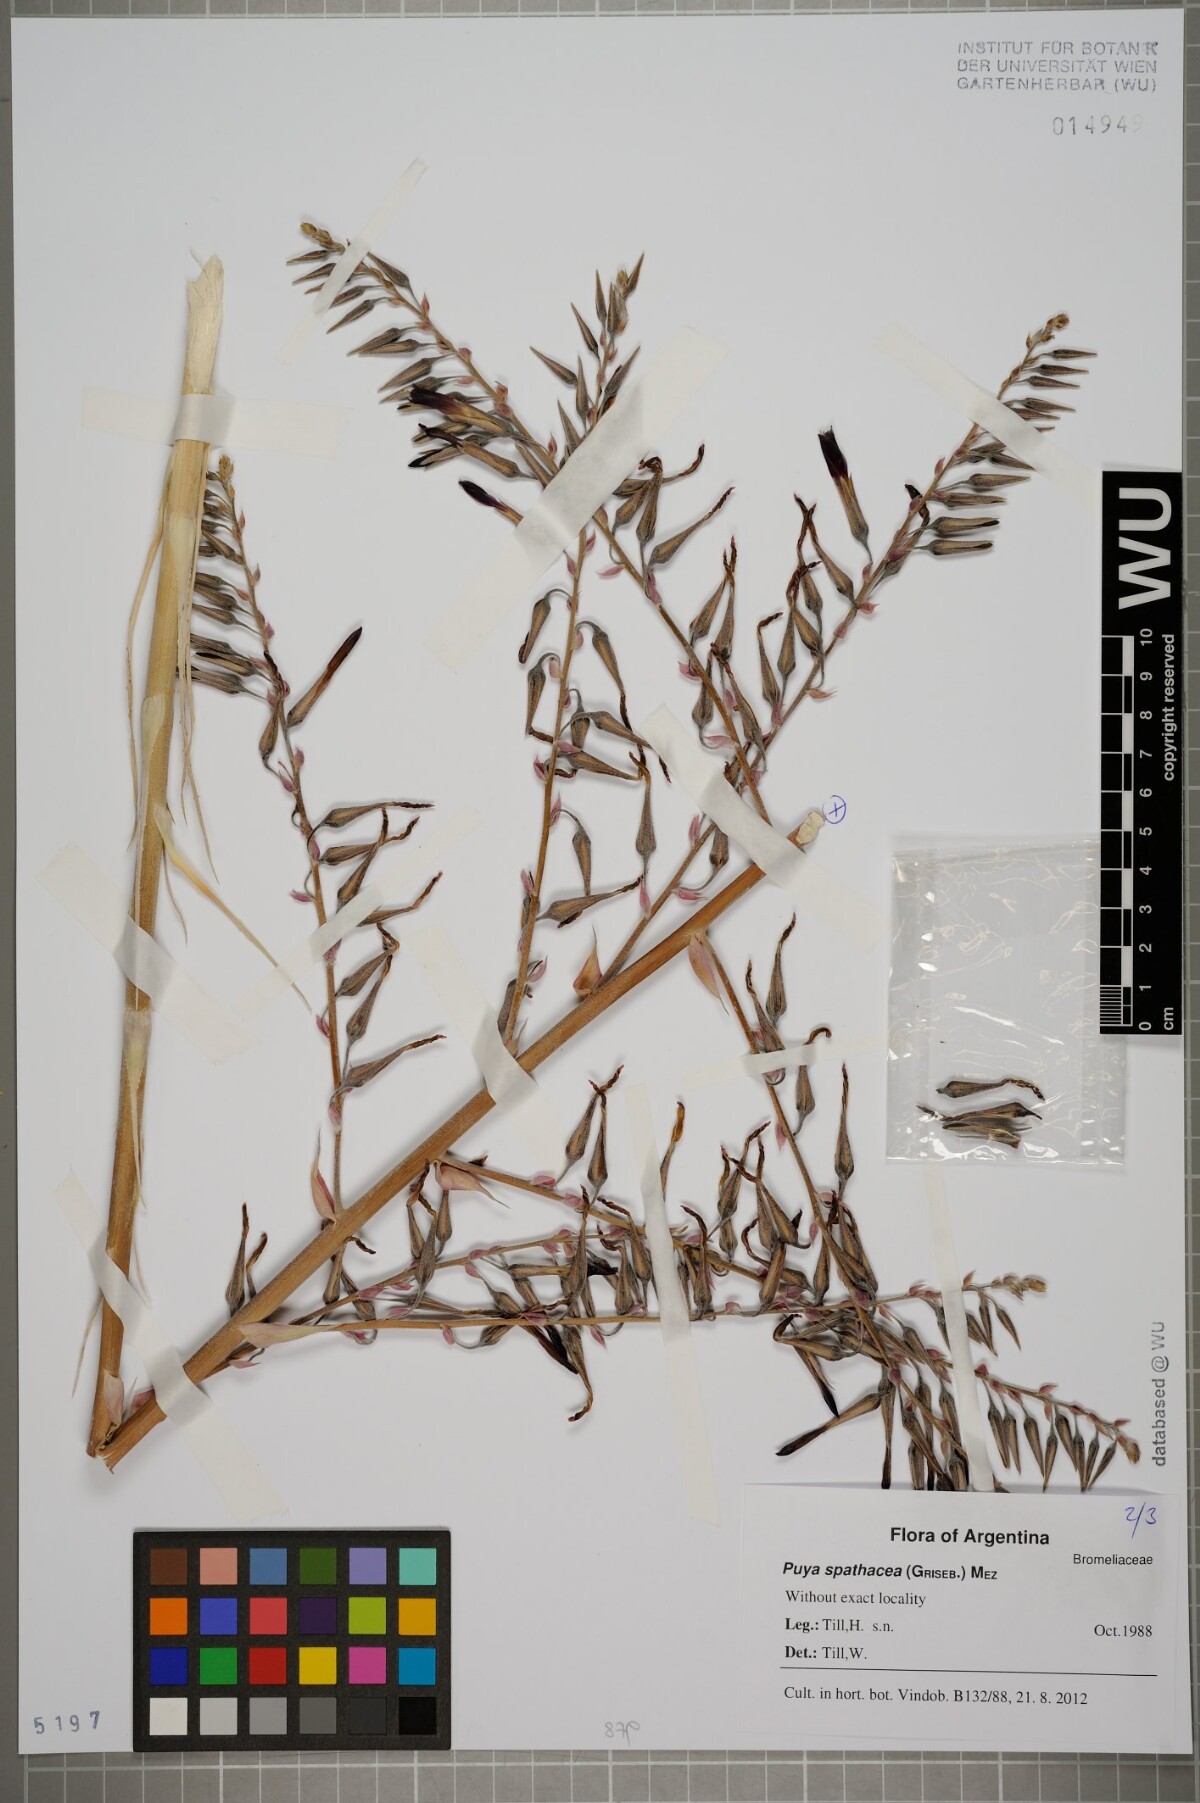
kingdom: Plantae
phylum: Tracheophyta
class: Liliopsida
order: Poales
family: Bromeliaceae
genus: Puya
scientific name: Puya spathacea
